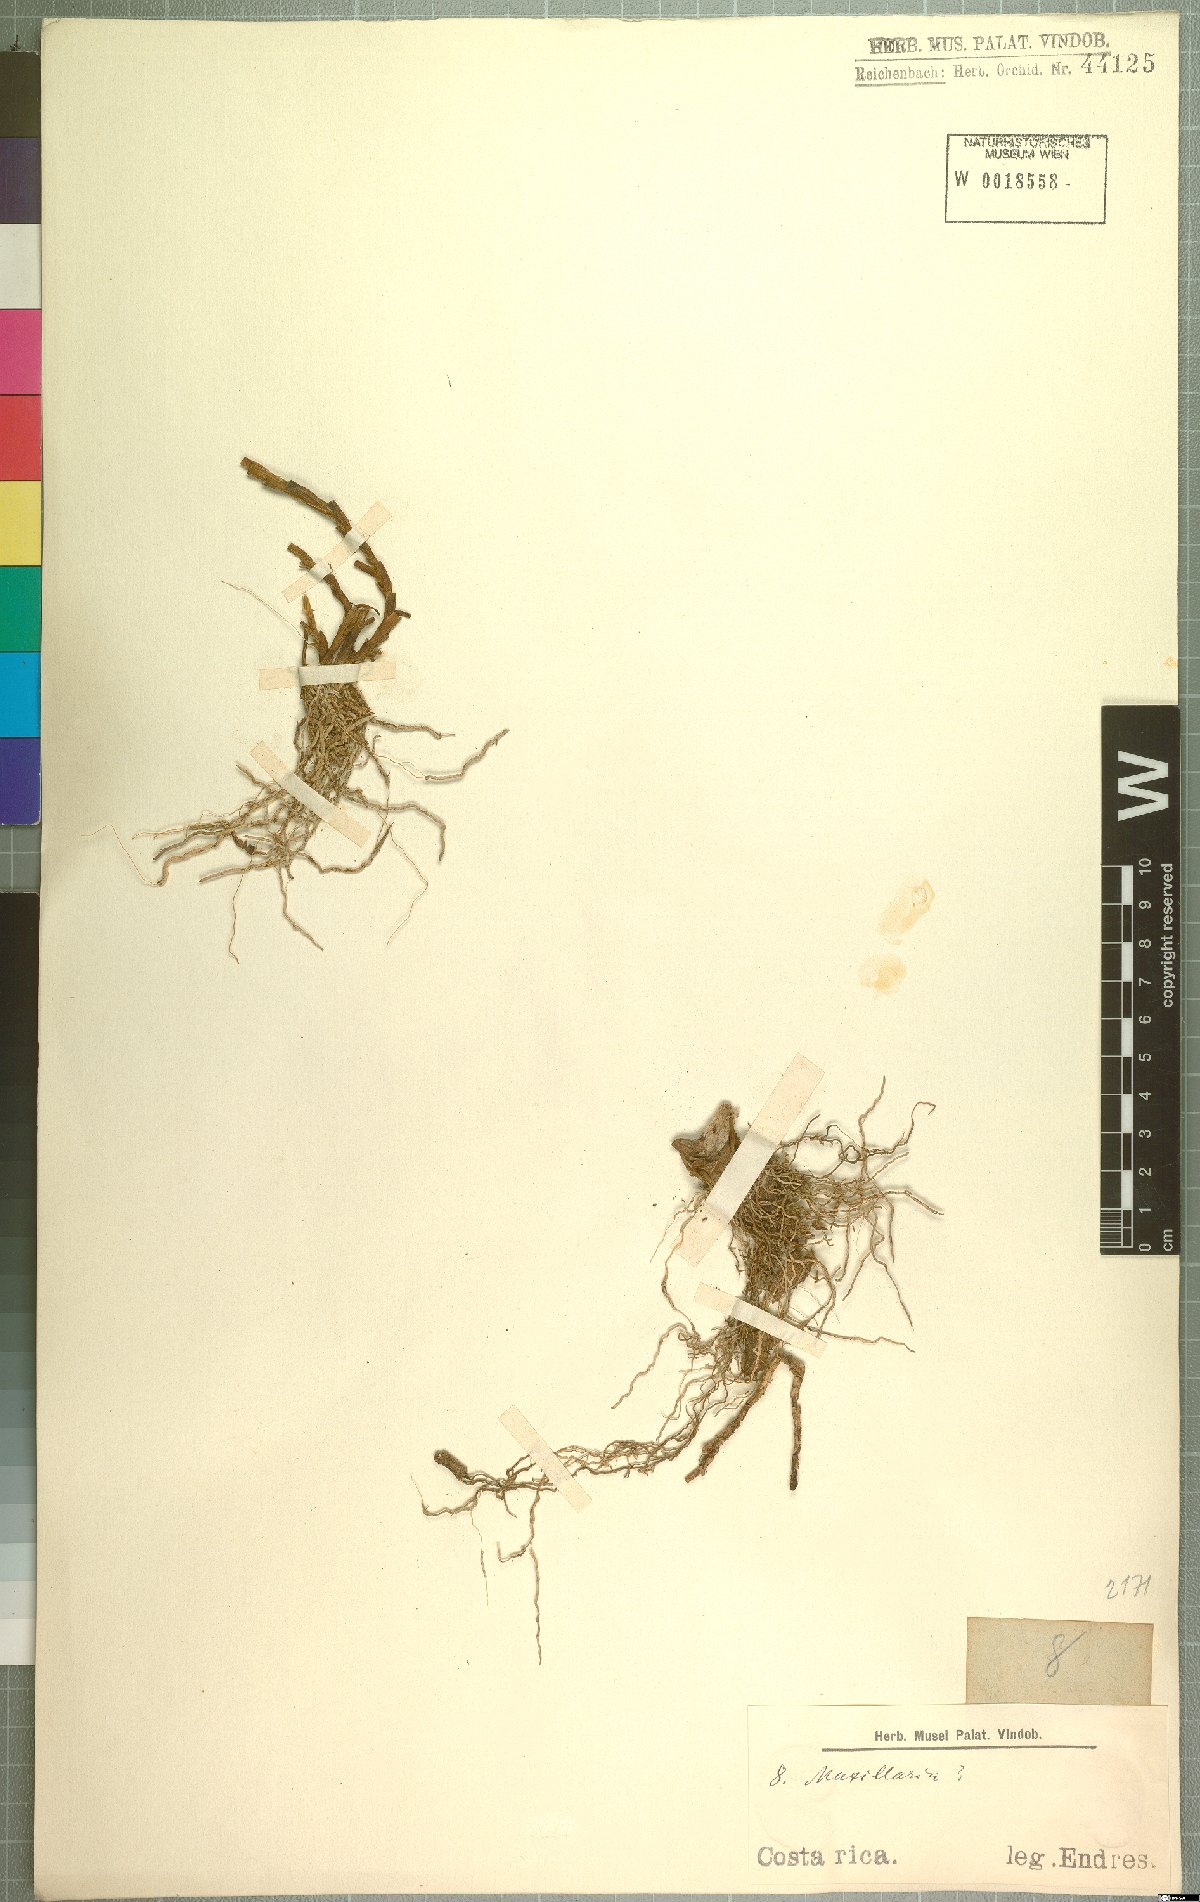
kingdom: Plantae
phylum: Tracheophyta
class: Liliopsida
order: Asparagales
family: Orchidaceae
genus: Maxillaria
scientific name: Maxillaria
